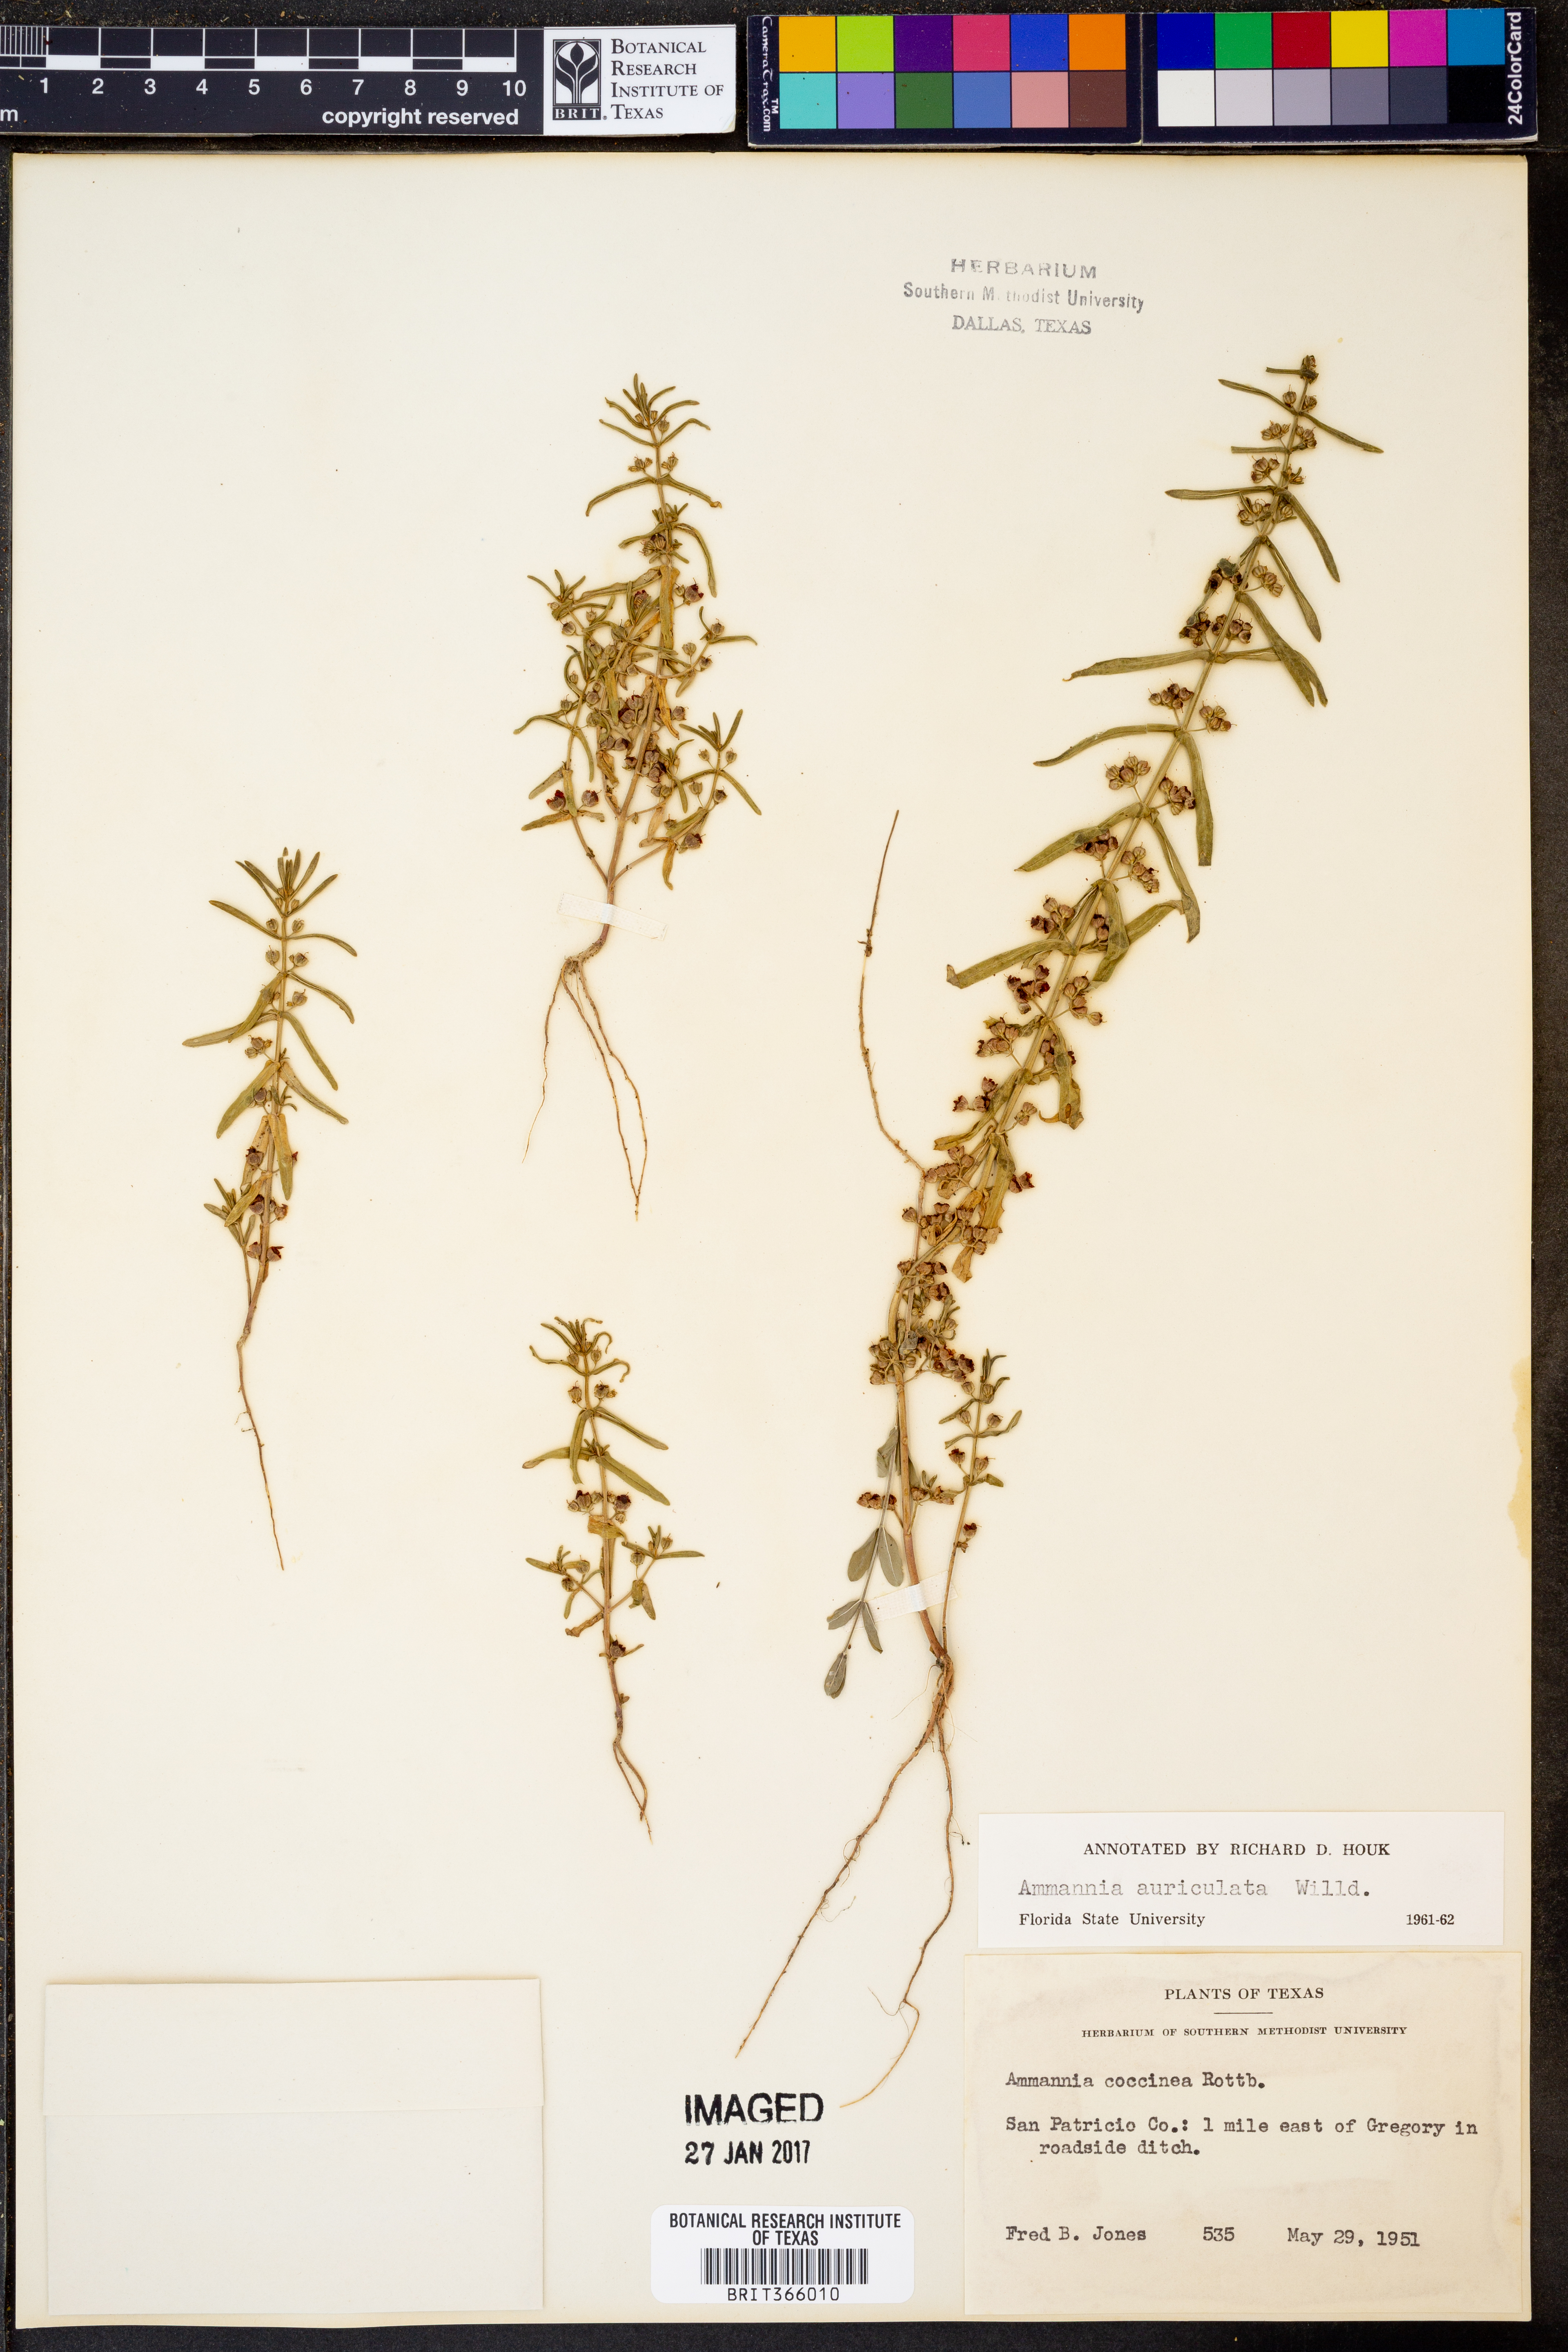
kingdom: Plantae
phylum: Tracheophyta
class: Magnoliopsida
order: Myrtales
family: Lythraceae
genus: Ammannia
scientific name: Ammannia auriculata
